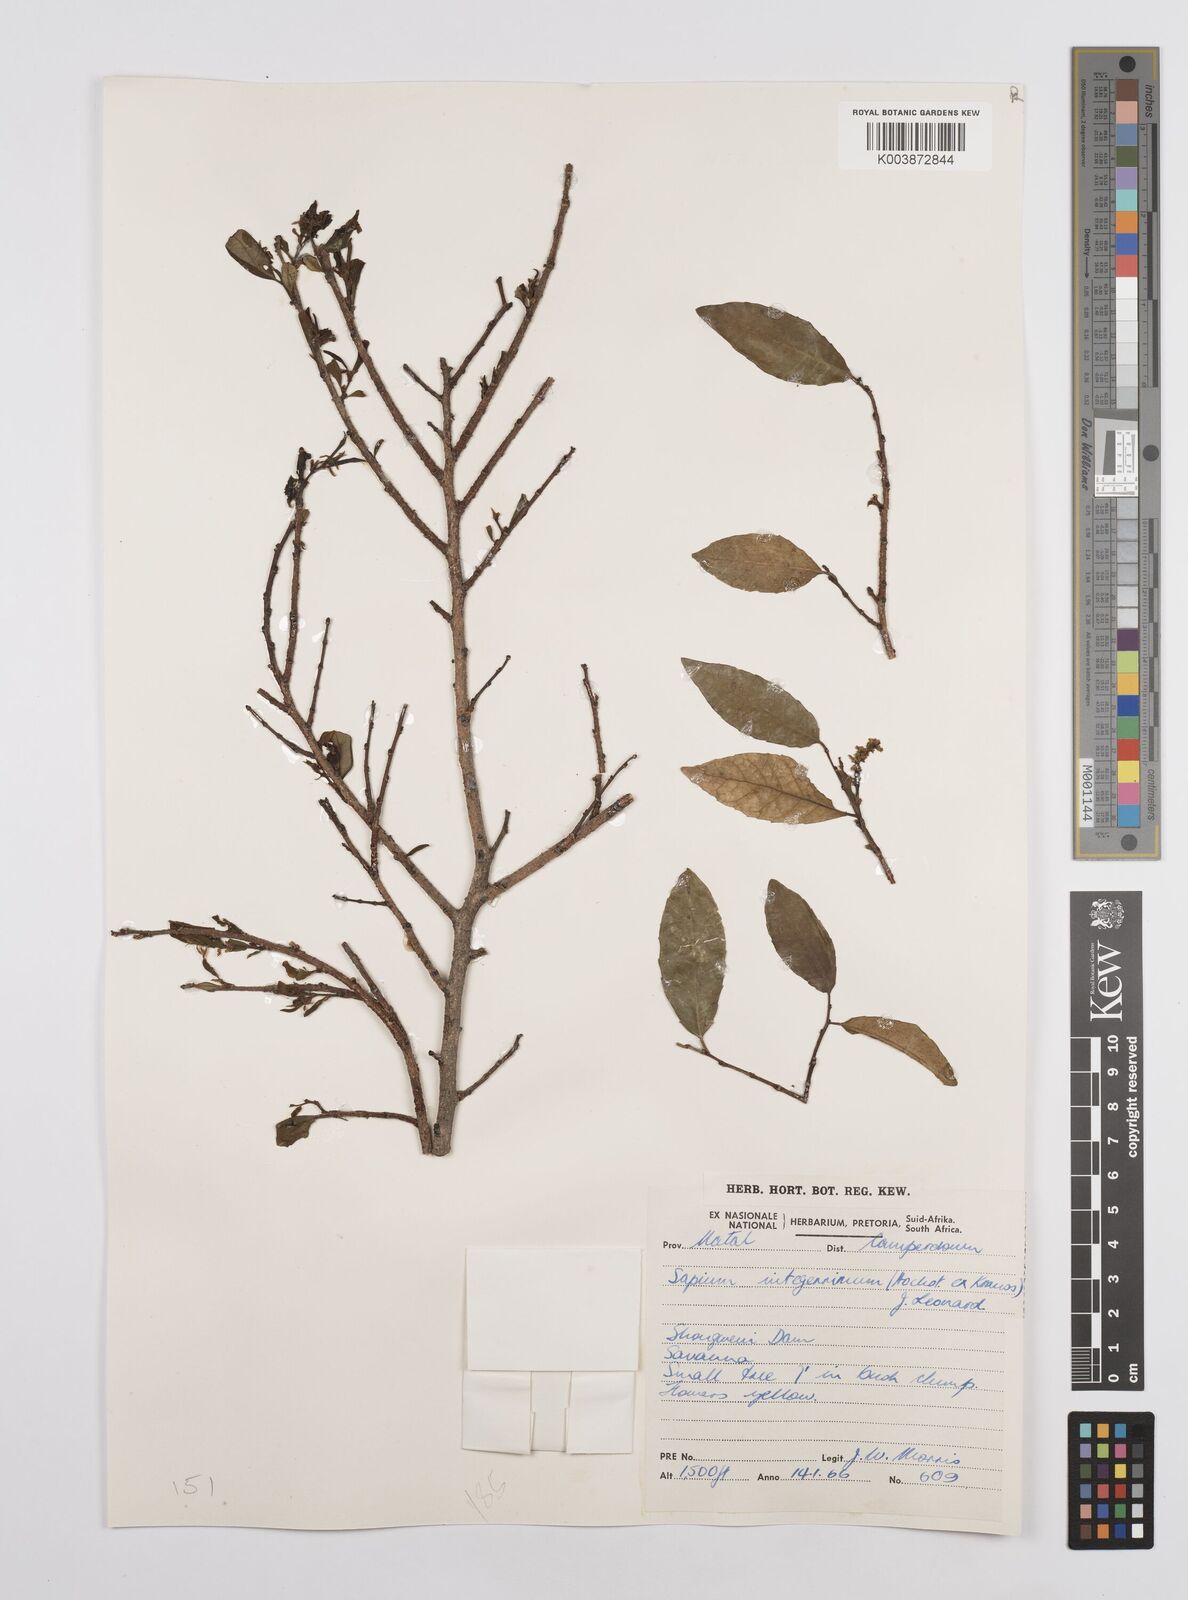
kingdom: Plantae
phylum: Tracheophyta
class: Magnoliopsida
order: Malpighiales
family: Euphorbiaceae
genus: Sclerocroton
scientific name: Sclerocroton integerrimus
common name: Duiker berry
